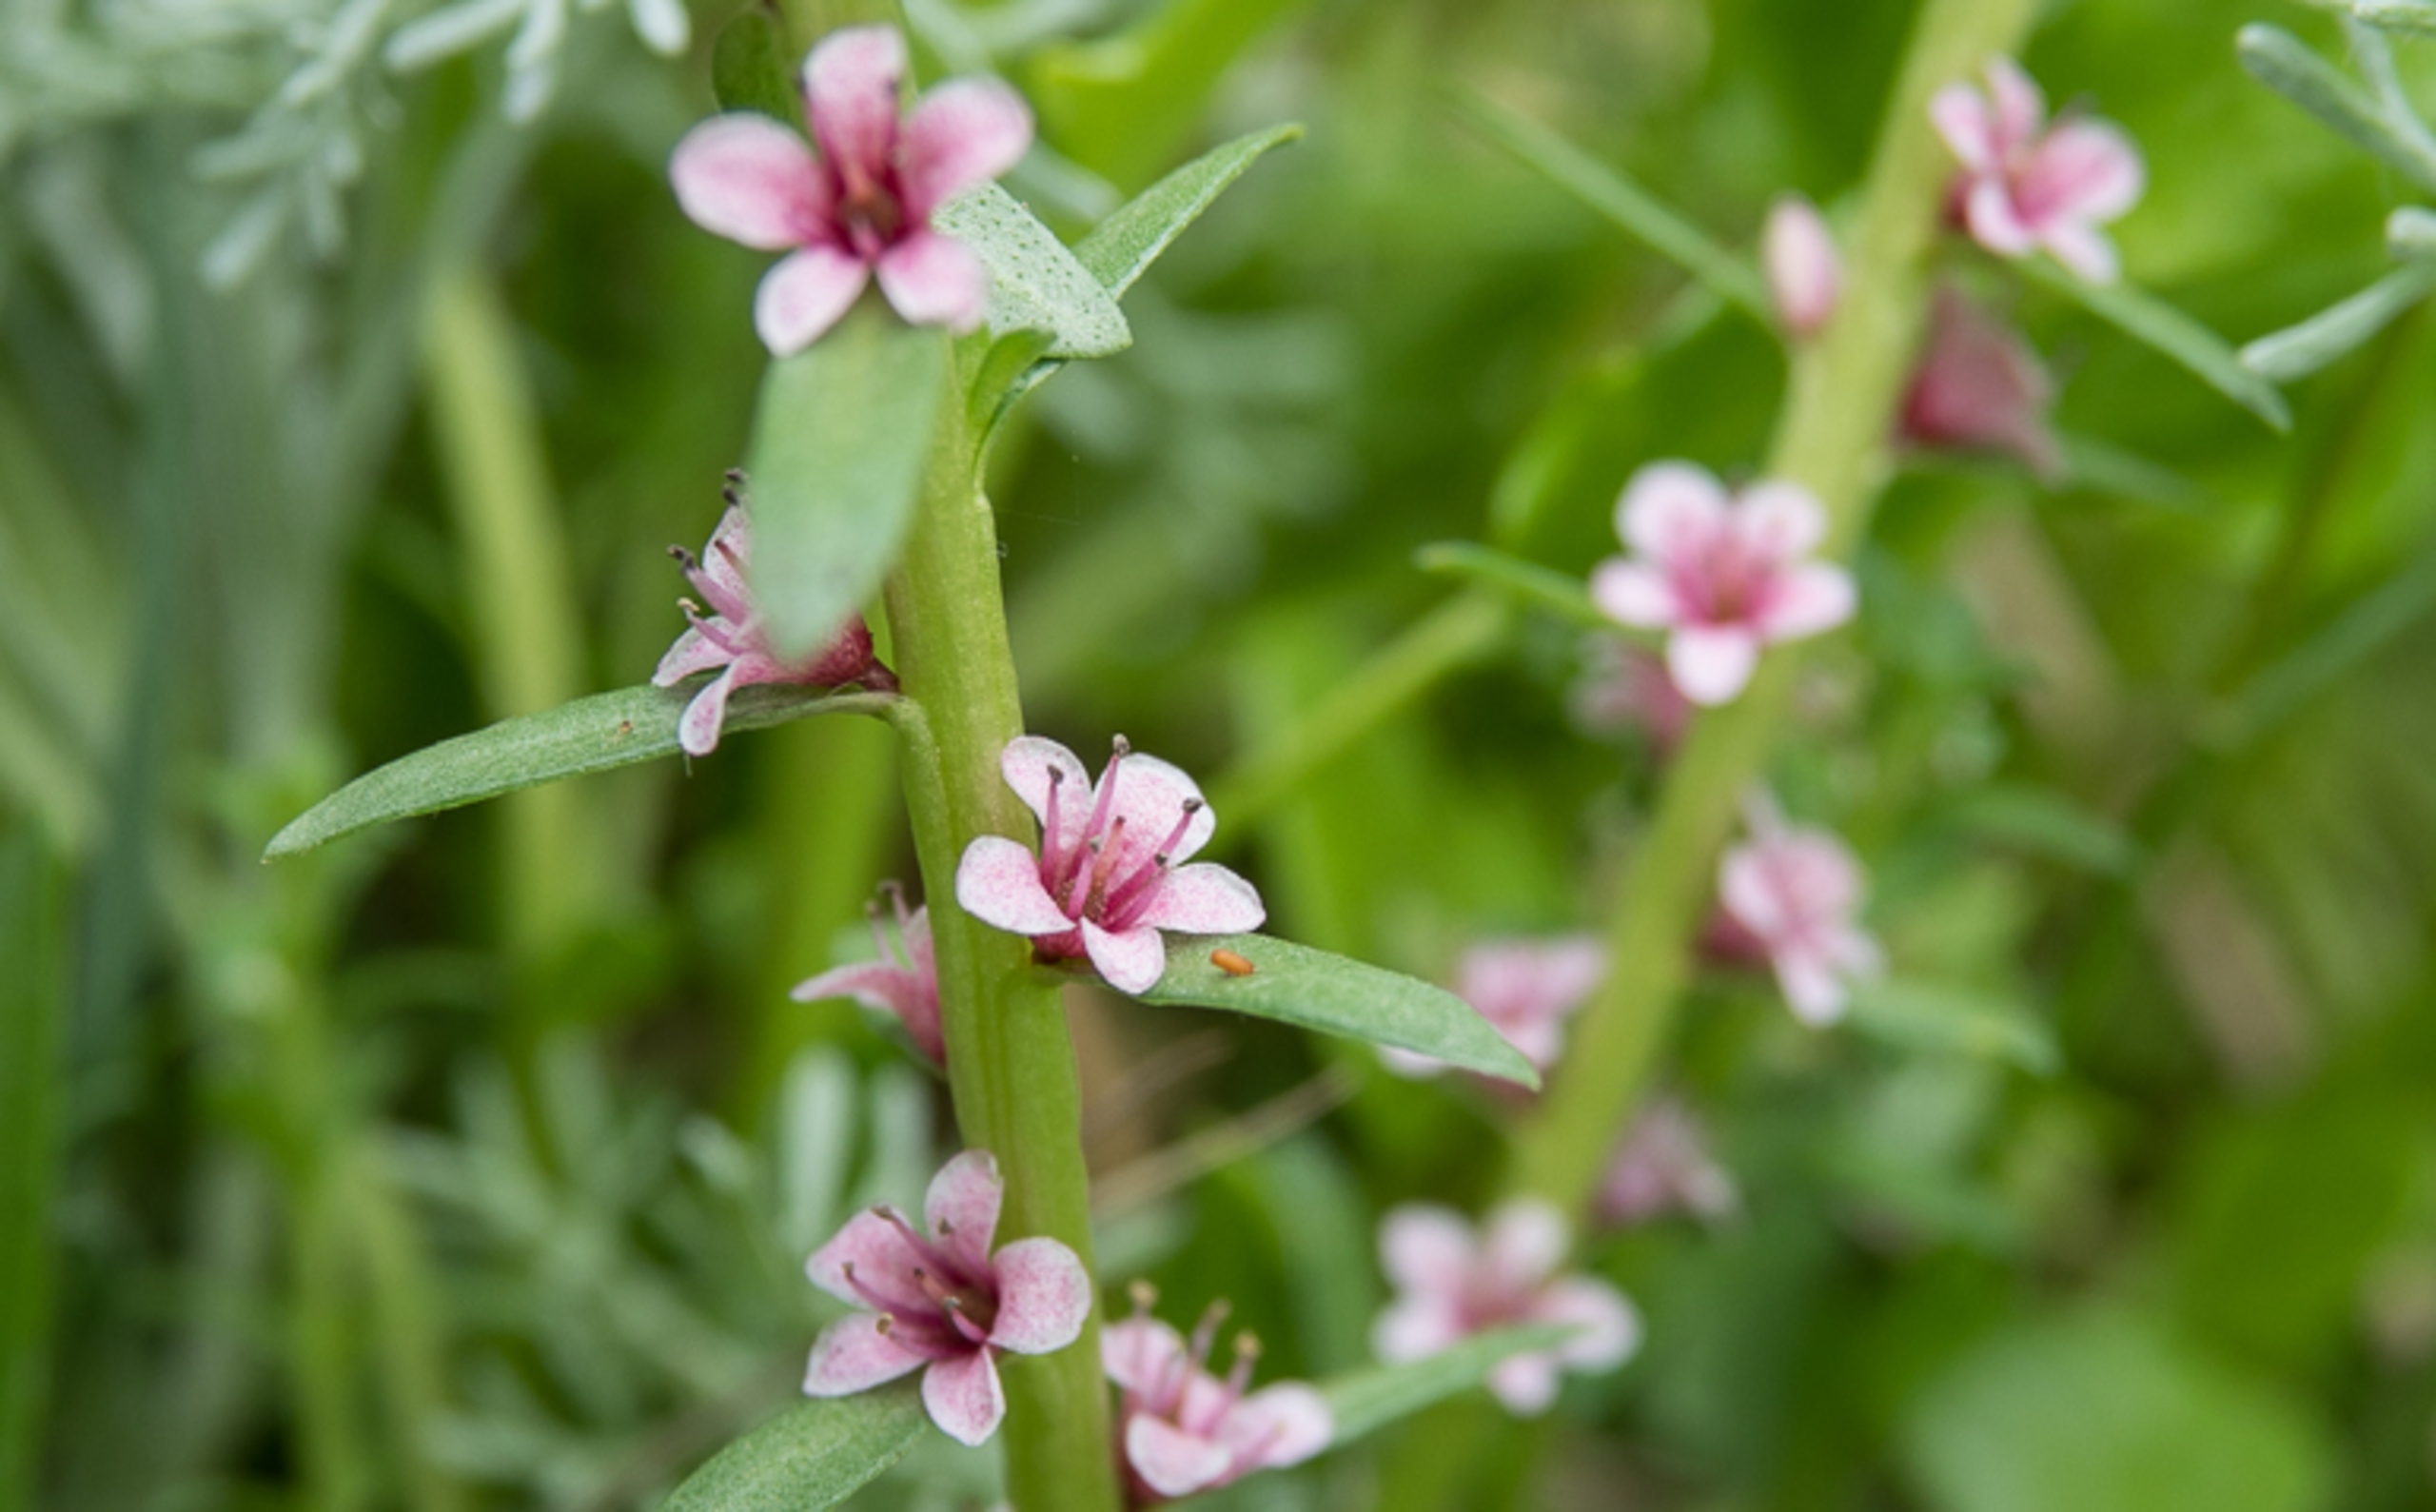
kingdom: Plantae
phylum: Tracheophyta
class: Magnoliopsida
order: Ericales
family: Primulaceae
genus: Lysimachia
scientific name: Lysimachia maritima
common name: Sandkryb
